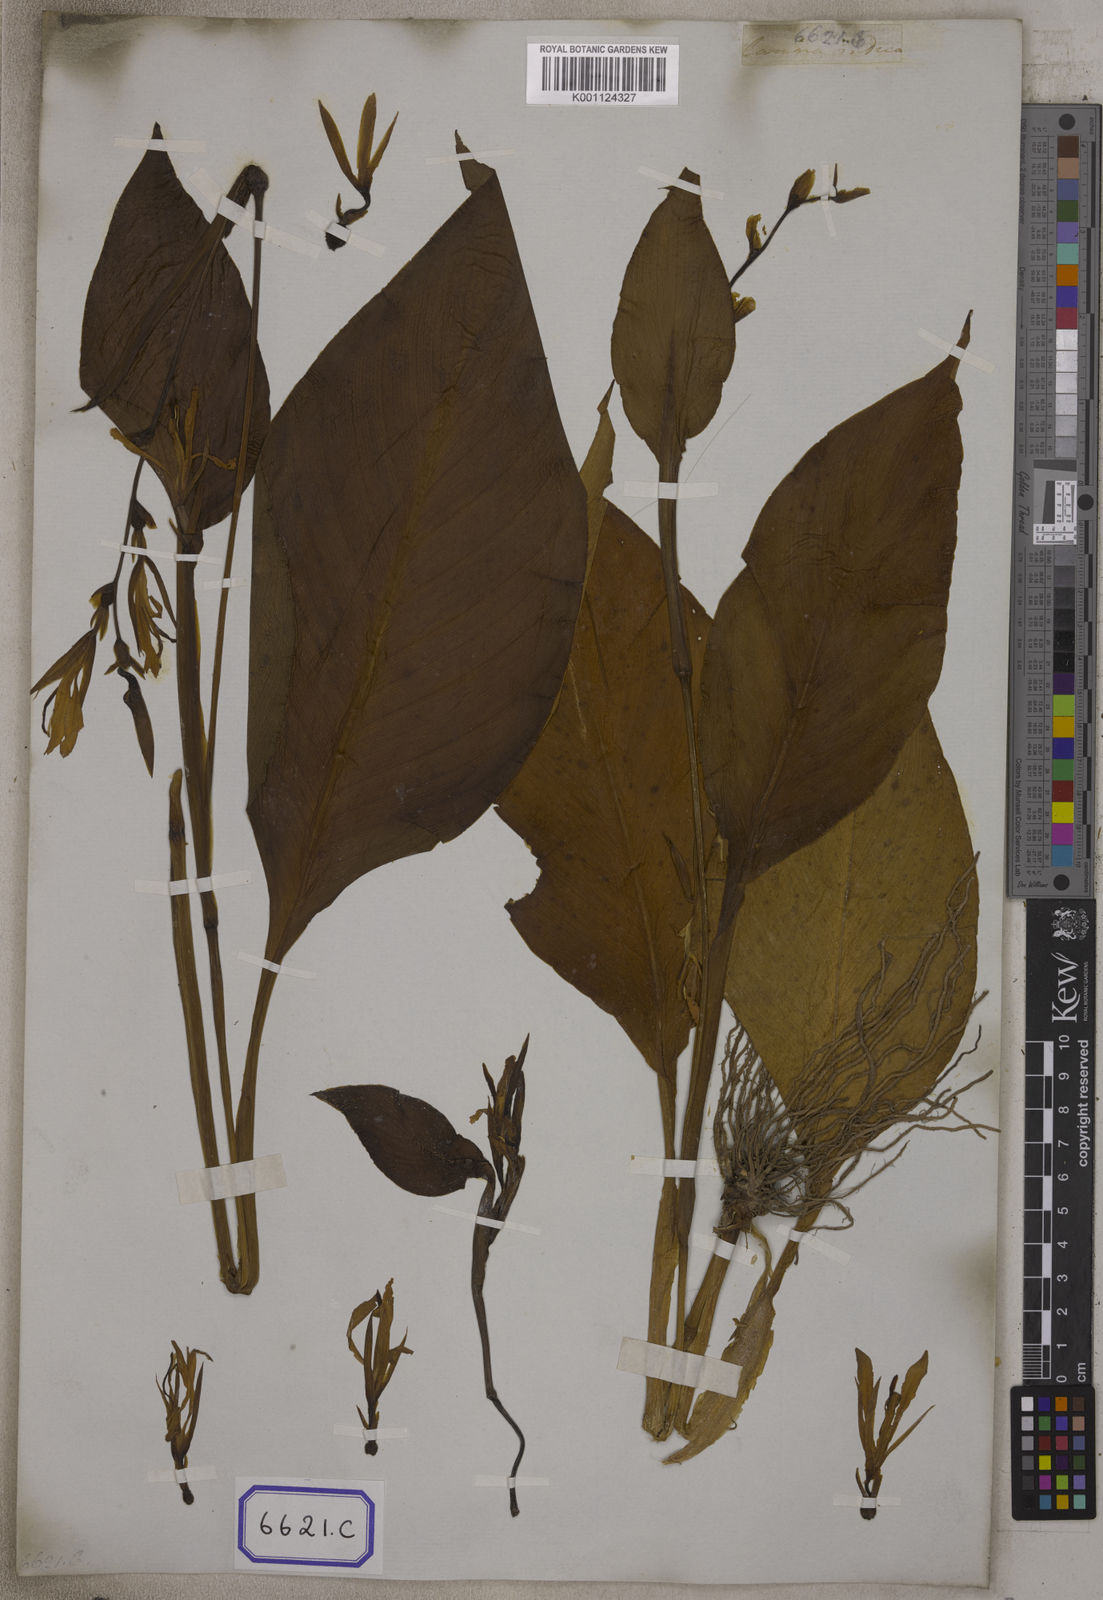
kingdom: Plantae
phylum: Tracheophyta
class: Liliopsida
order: Zingiberales
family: Cannaceae
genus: Canna
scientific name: Canna indica
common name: Indian shot
